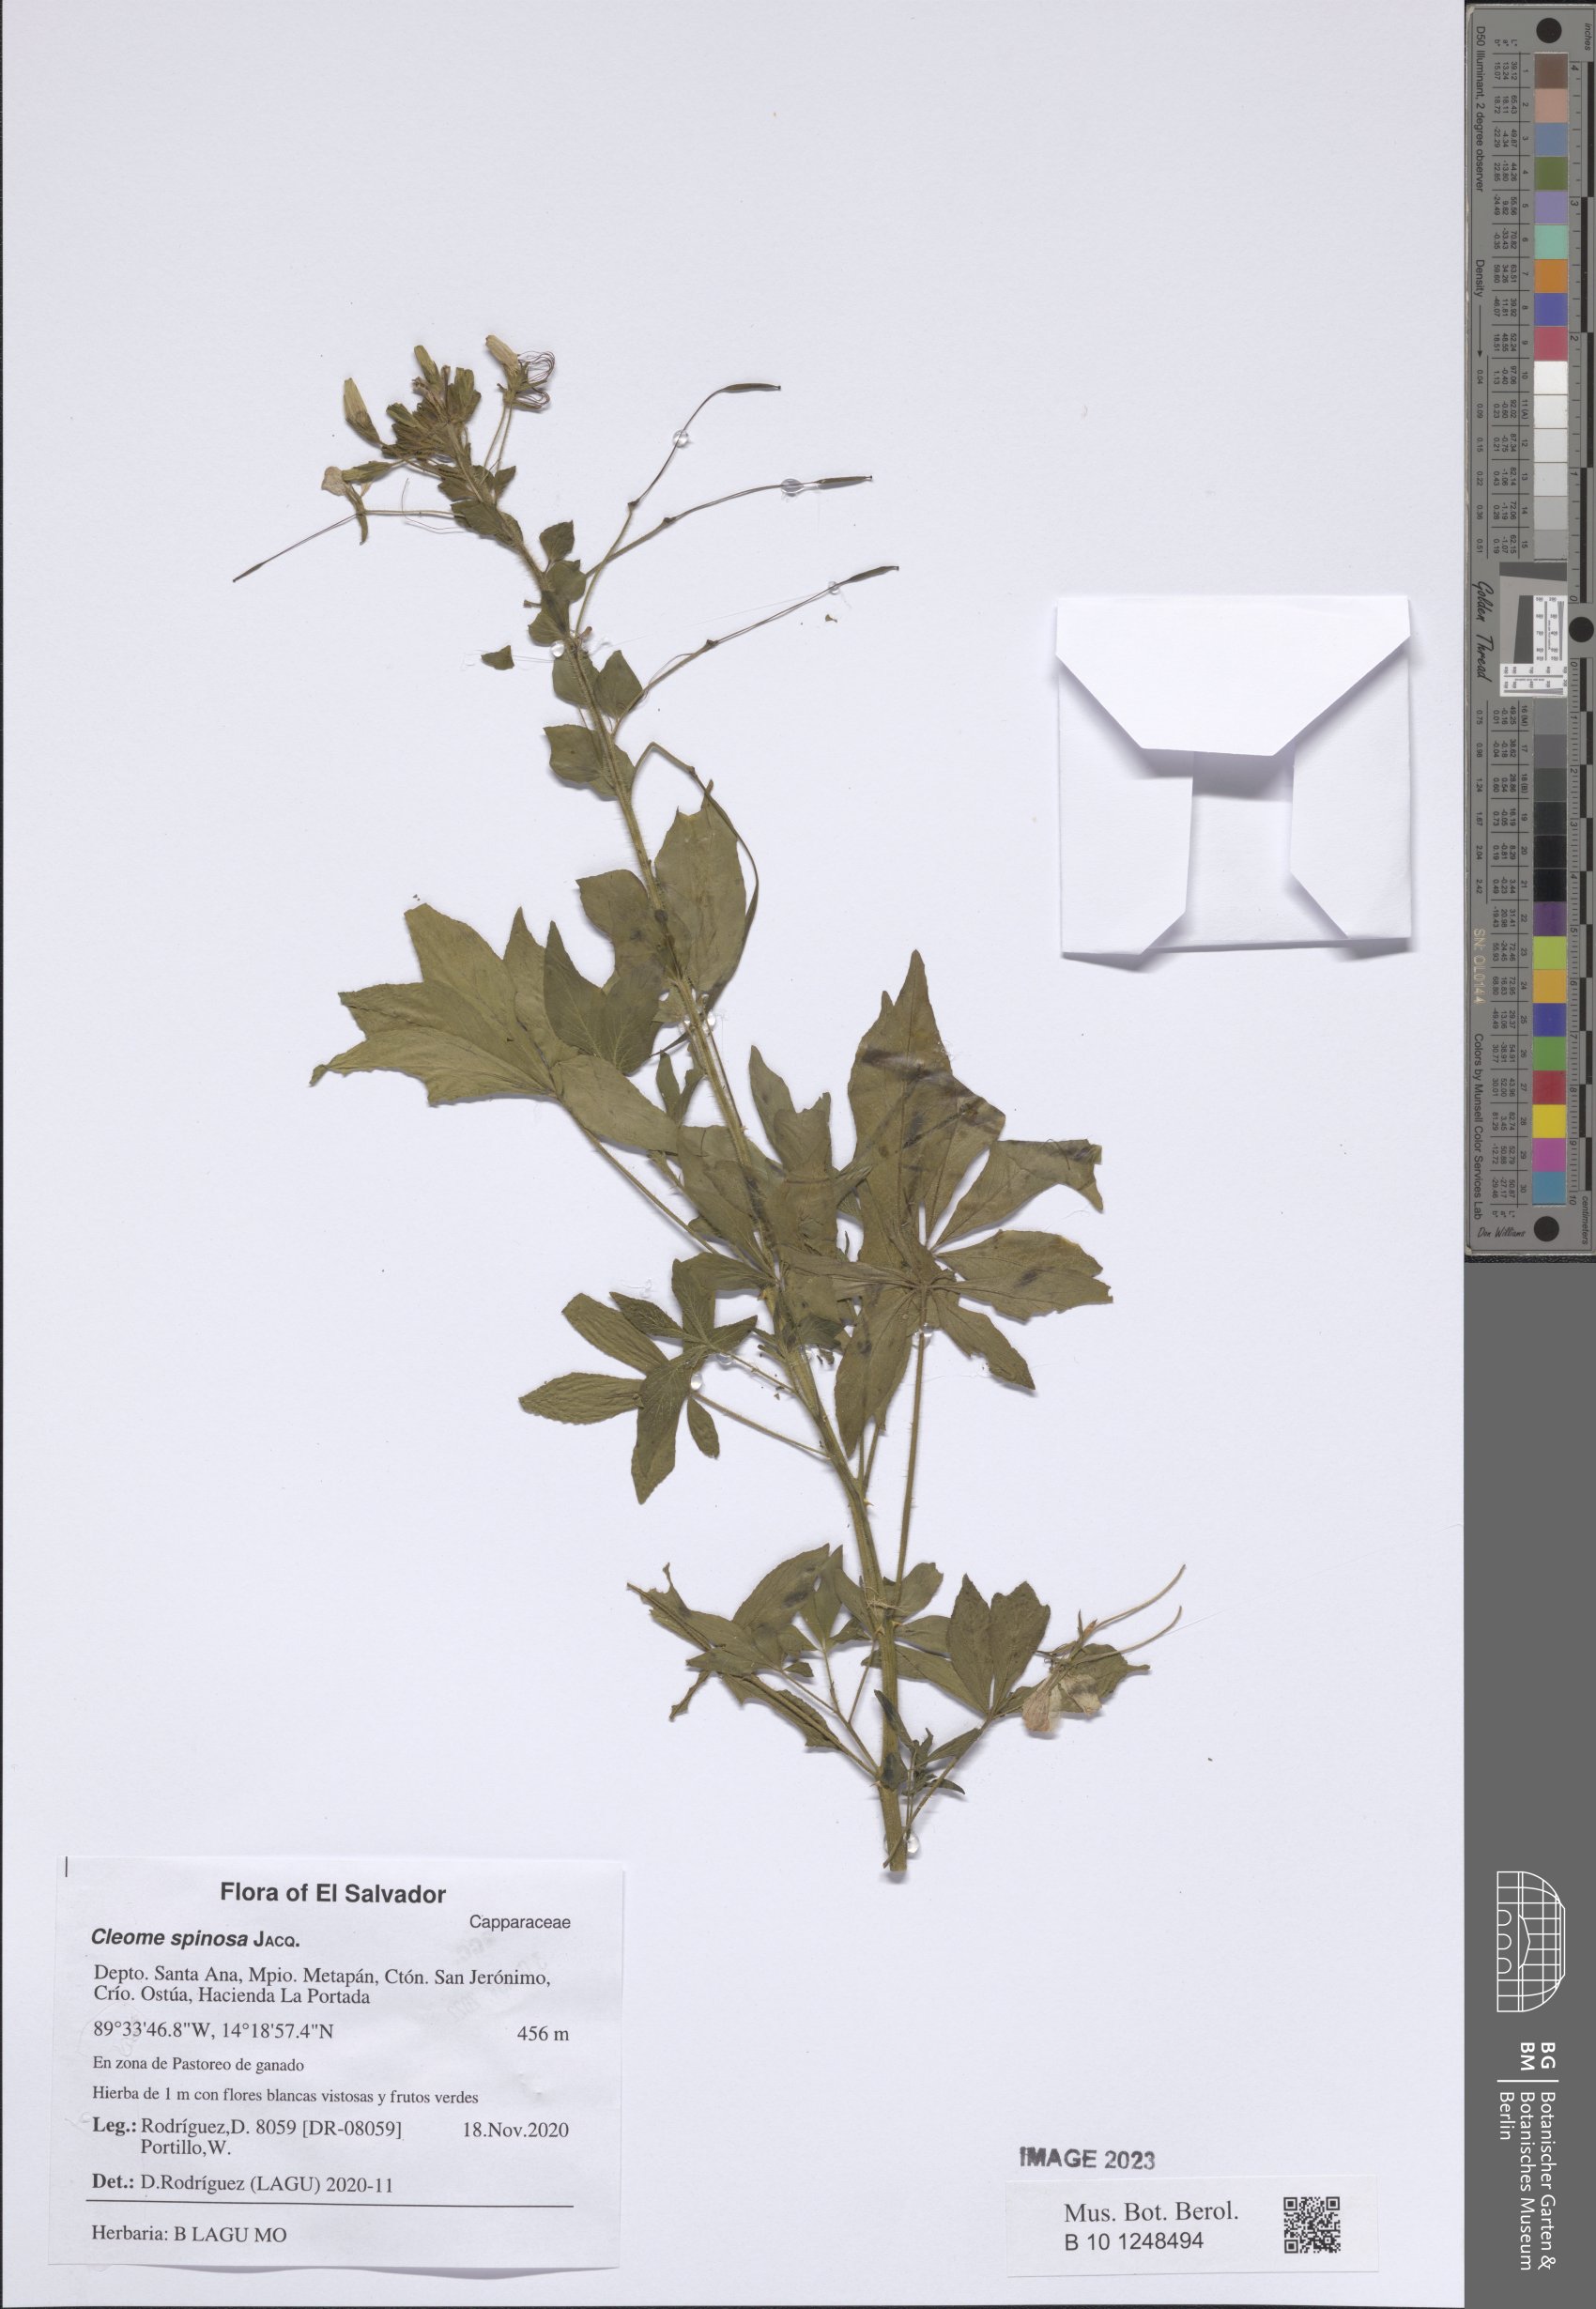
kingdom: Plantae
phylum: Tracheophyta
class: Magnoliopsida
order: Brassicales
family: Cleomaceae
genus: Tarenaya
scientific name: Tarenaya spinosa
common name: Spiny spiderflower
